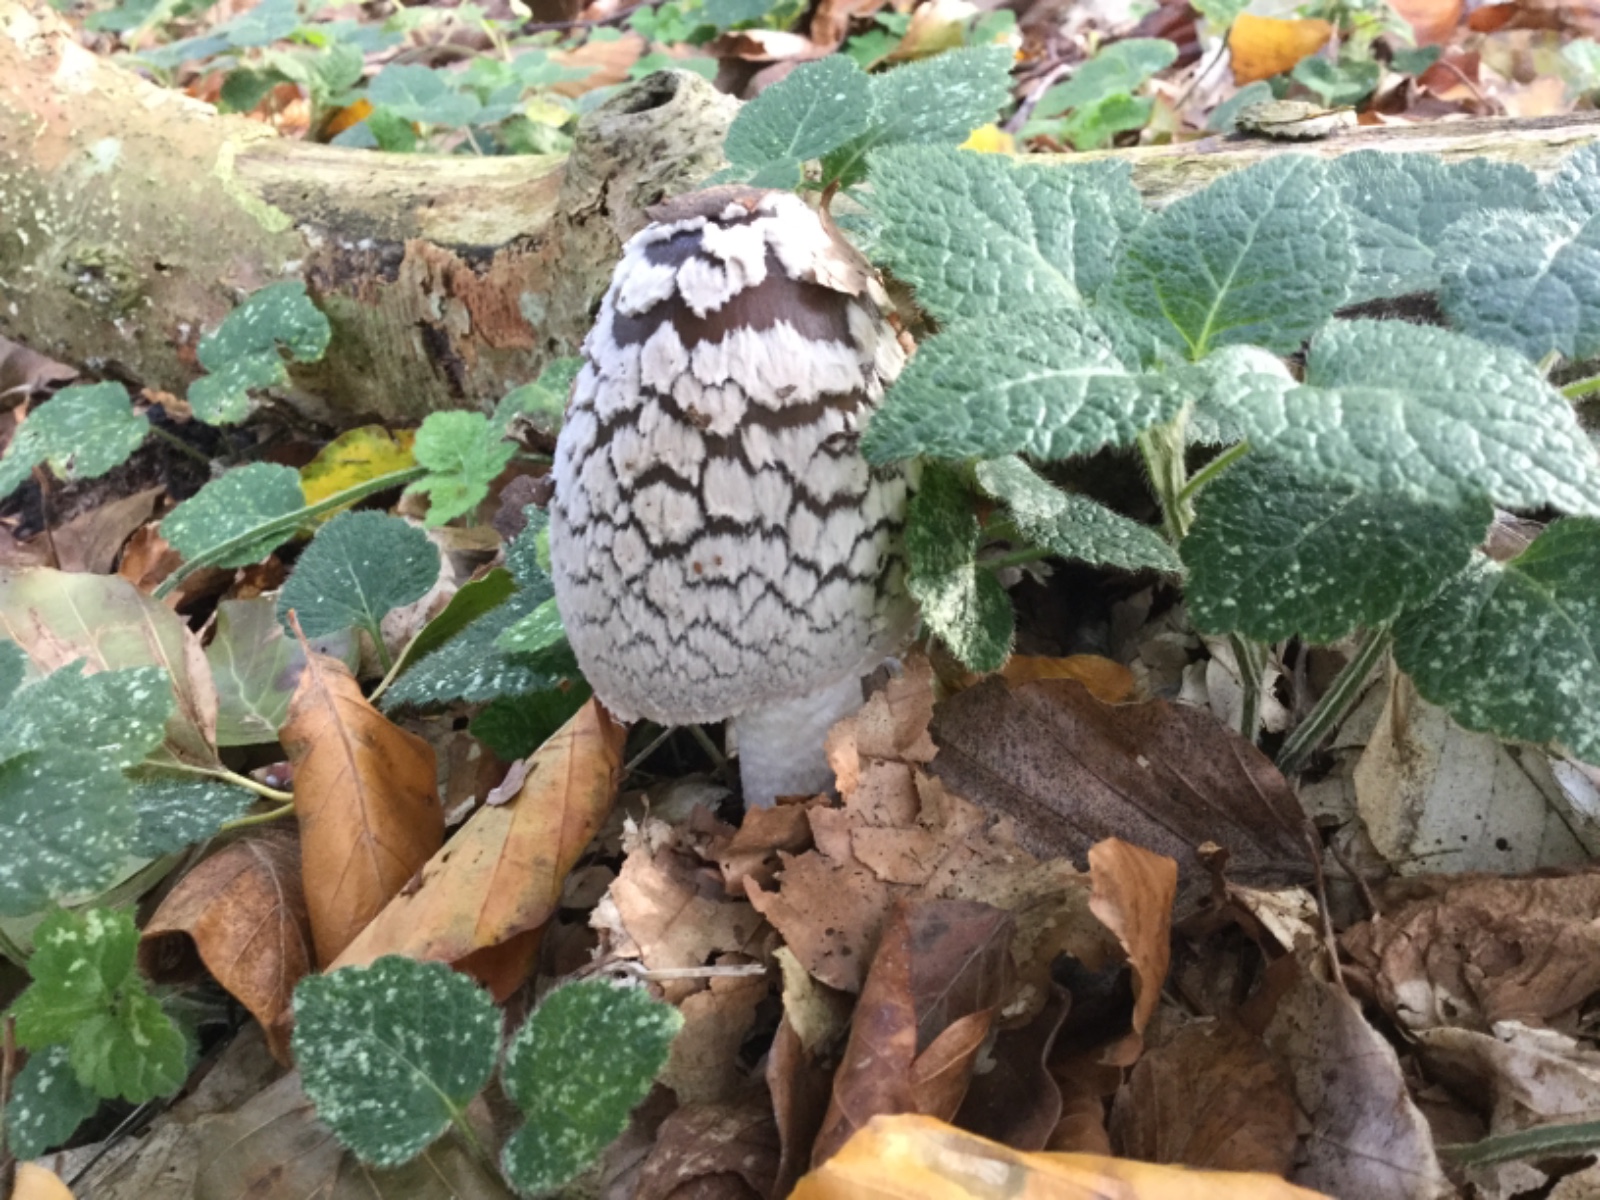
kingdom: Fungi
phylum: Basidiomycota
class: Agaricomycetes
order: Agaricales
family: Psathyrellaceae
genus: Coprinopsis
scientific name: Coprinopsis picacea
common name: skade-blækhat
